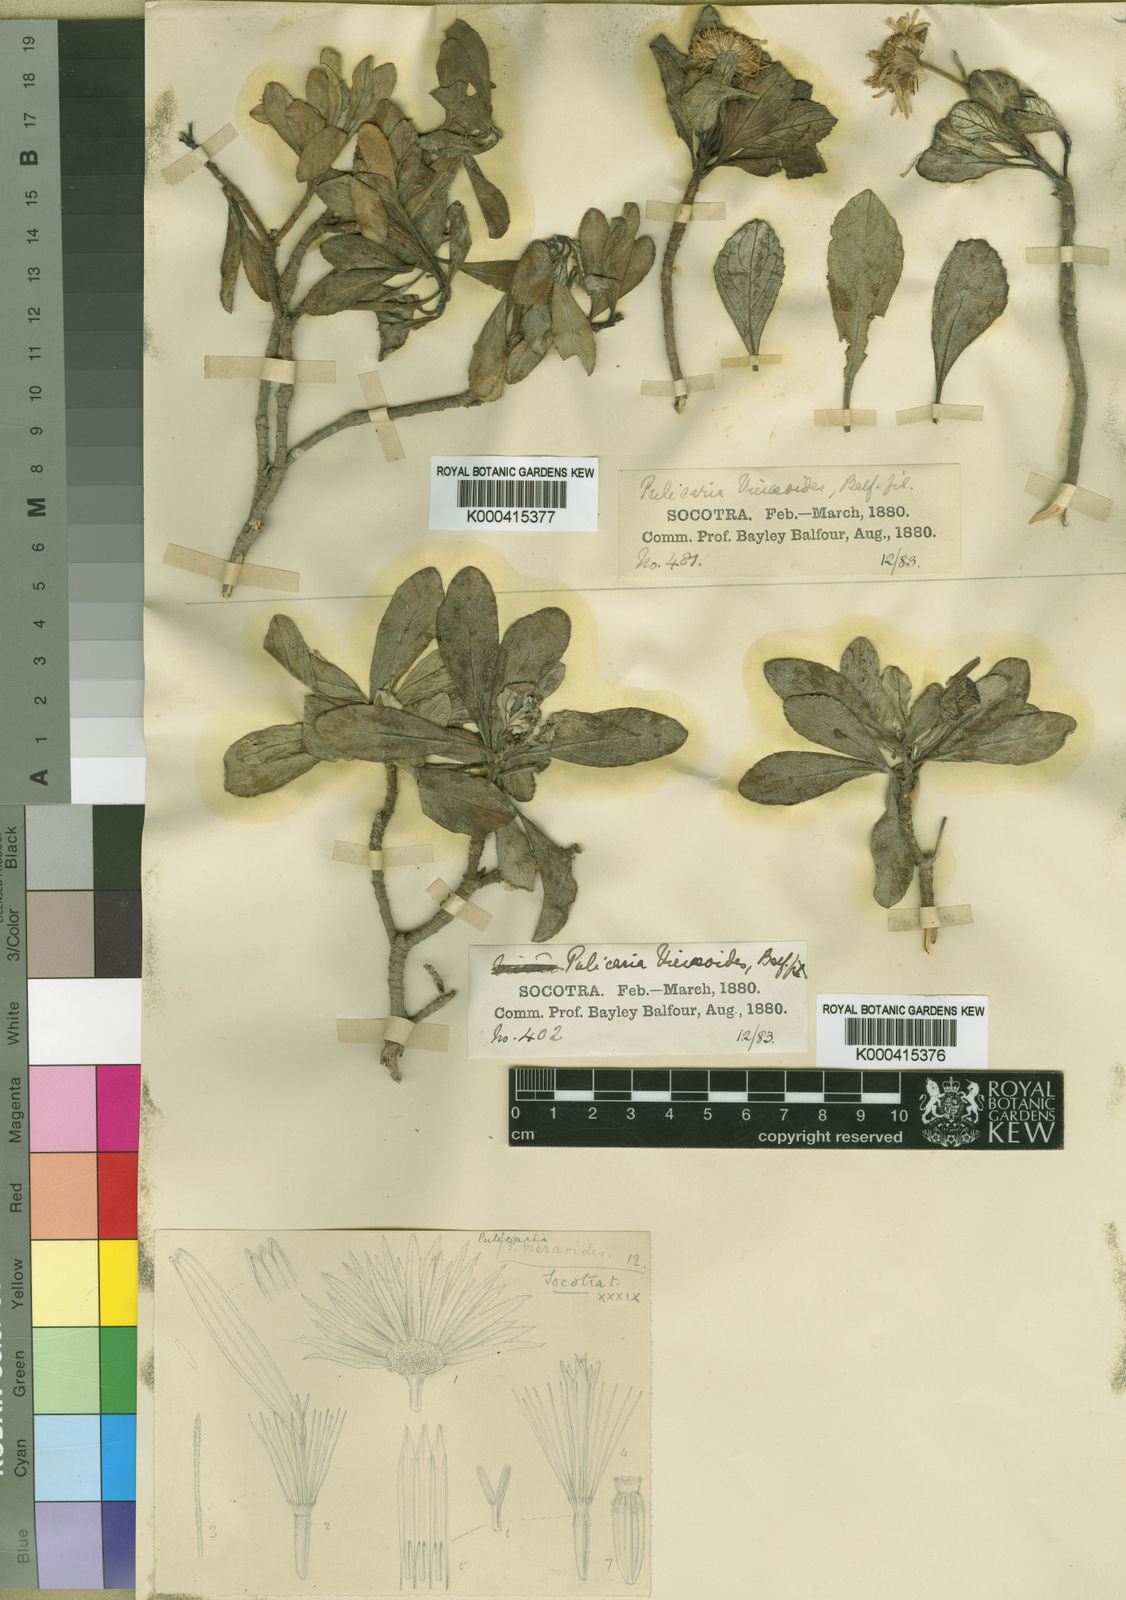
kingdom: Plantae
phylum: Tracheophyta
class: Magnoliopsida
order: Asterales
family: Asteraceae
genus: Pulicaria
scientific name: Pulicaria vieraeoides
